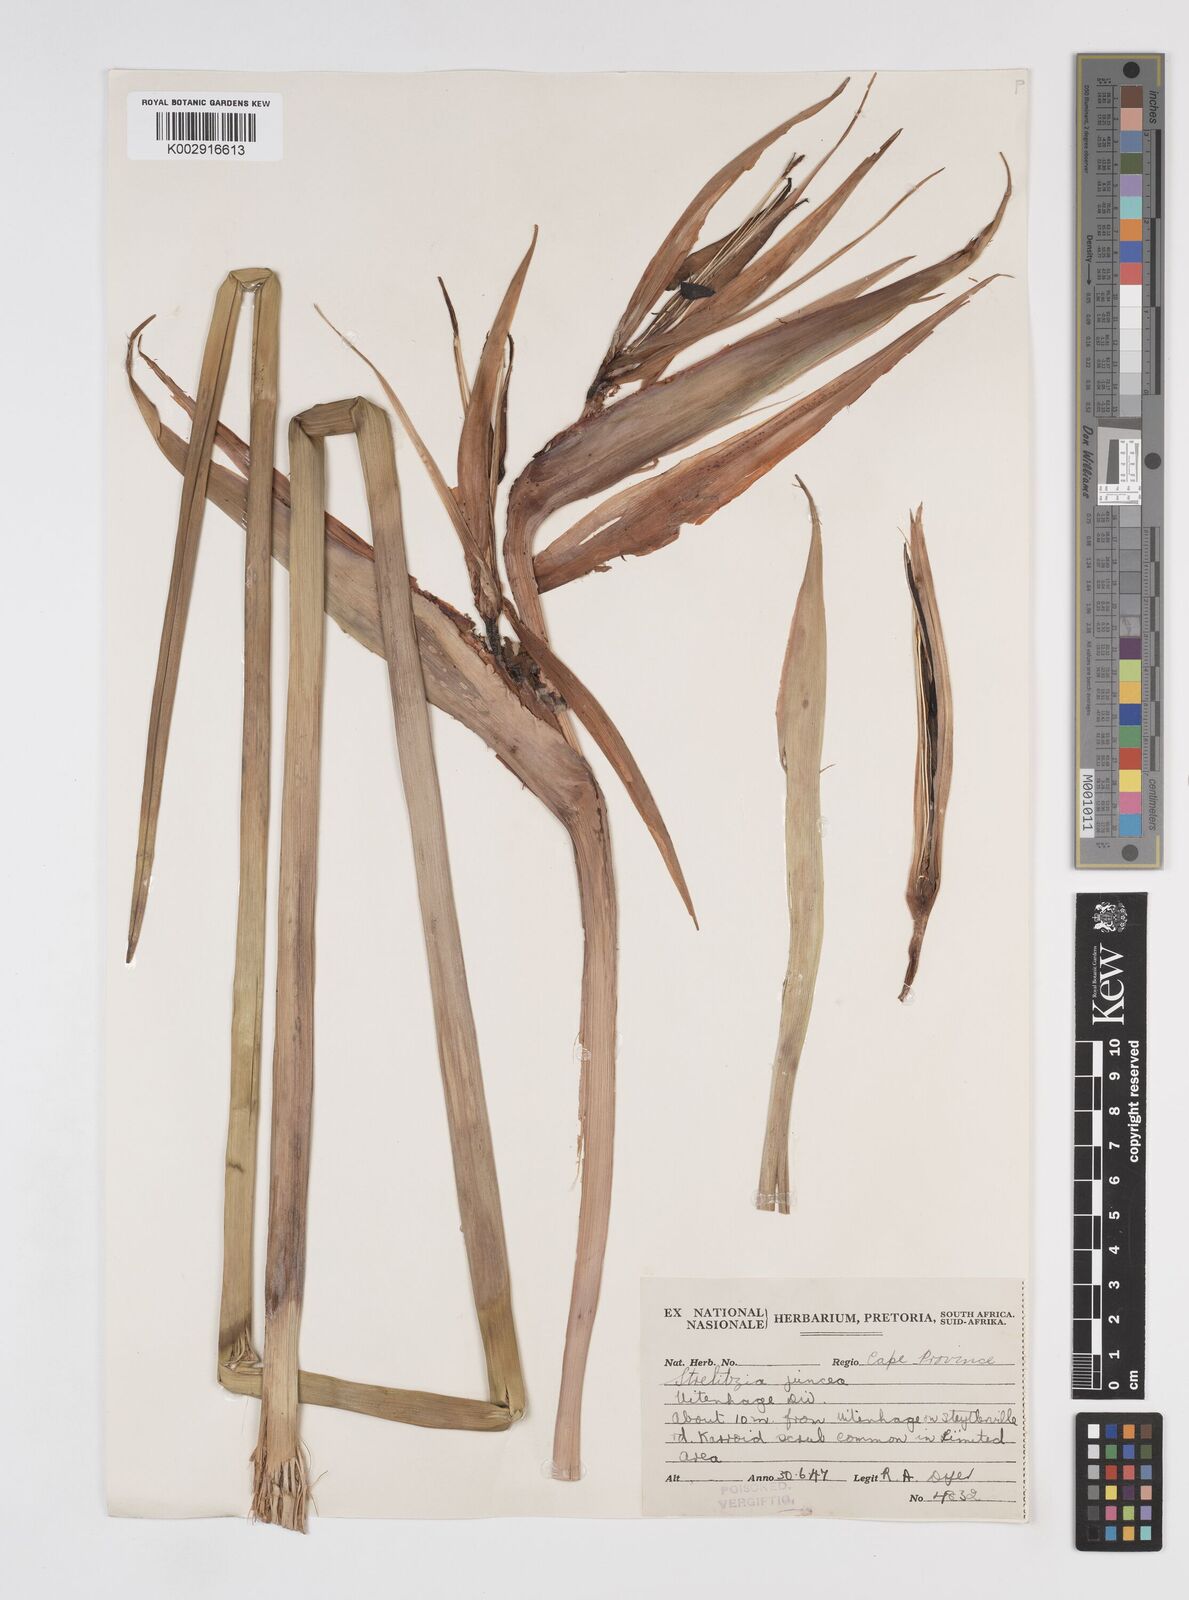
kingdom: Plantae
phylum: Tracheophyta
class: Liliopsida
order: Zingiberales
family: Strelitziaceae
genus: Strelitzia
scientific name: Strelitzia juncea
